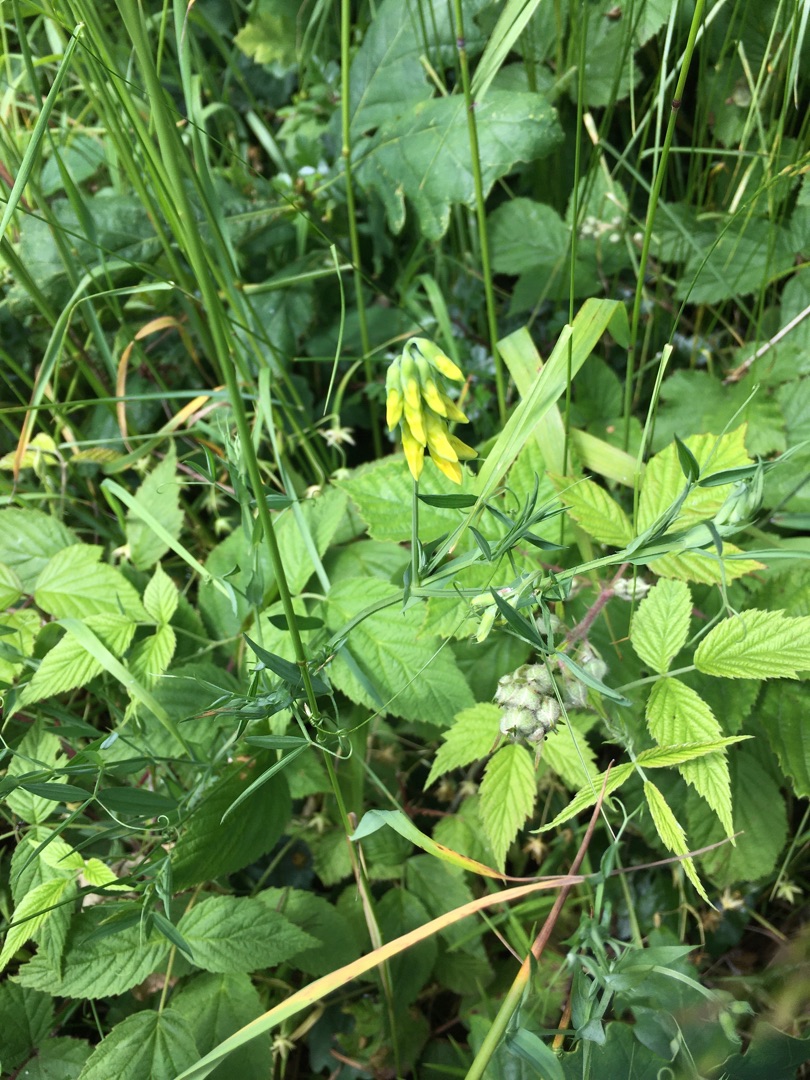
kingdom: Plantae
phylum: Tracheophyta
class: Magnoliopsida
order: Fabales
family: Fabaceae
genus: Lathyrus
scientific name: Lathyrus pratensis
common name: Gul fladbælg
